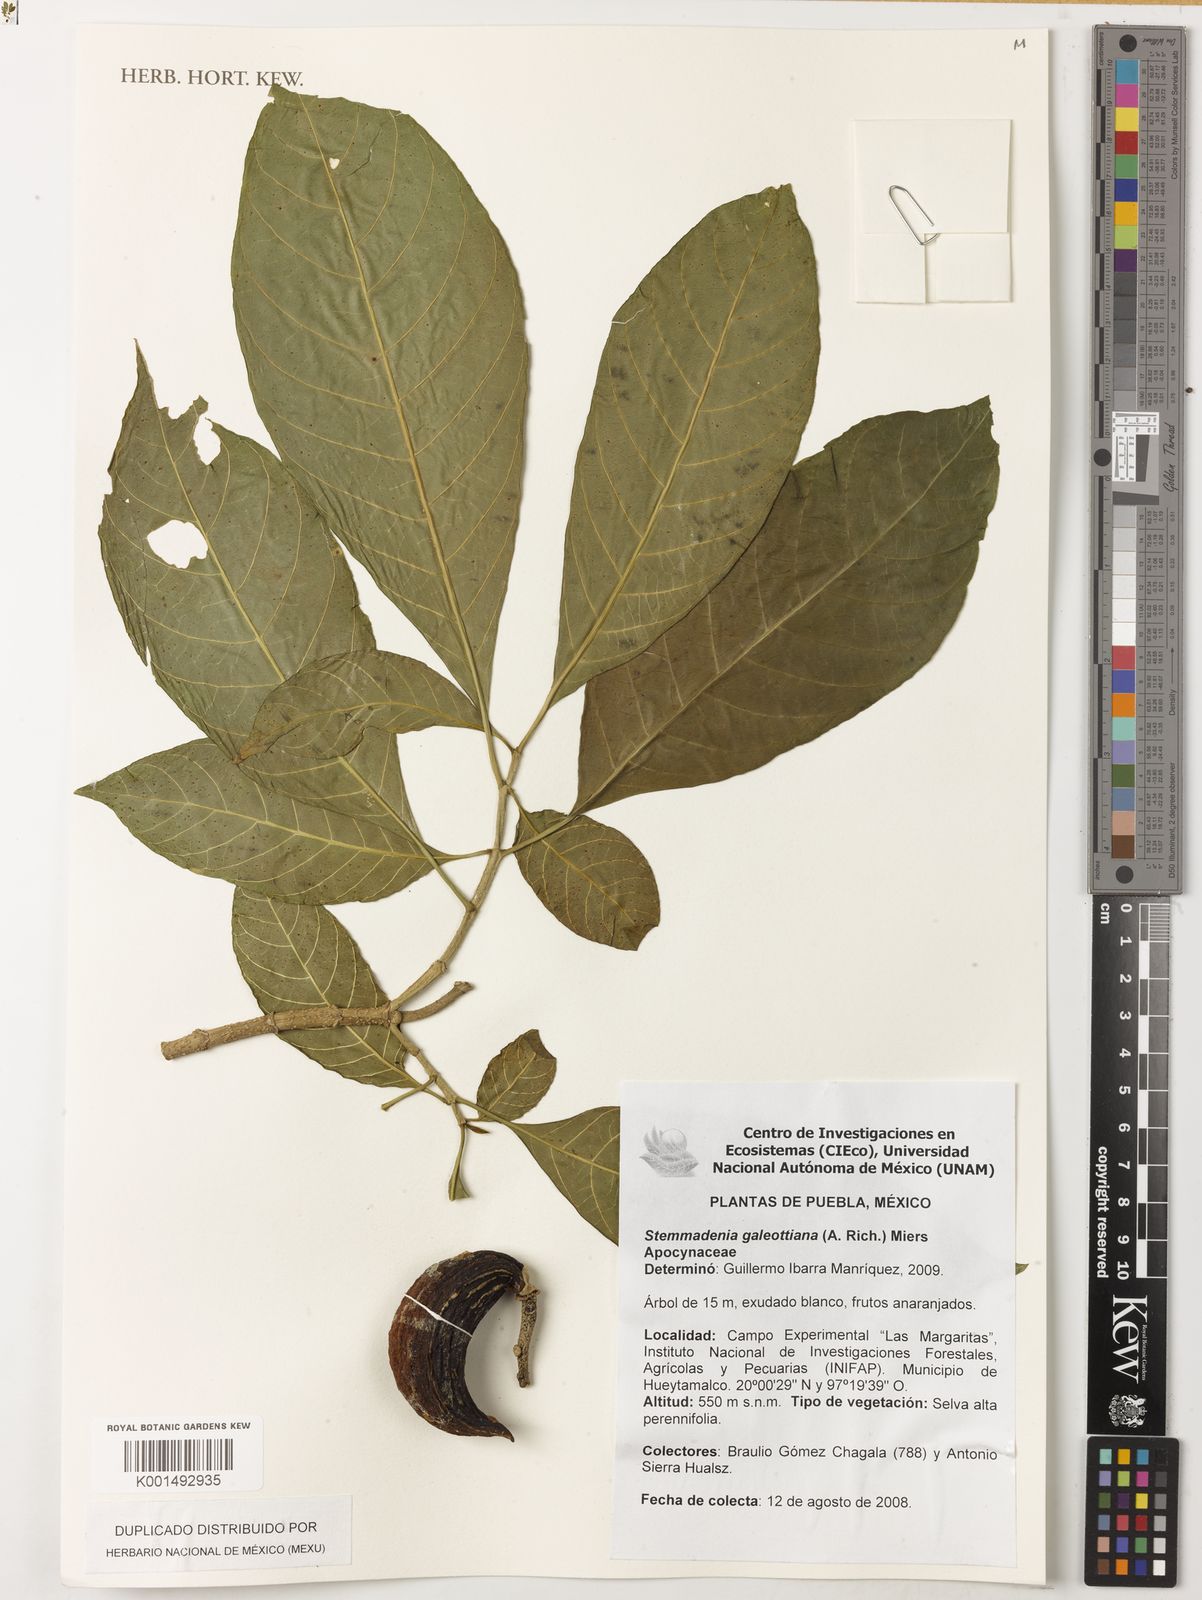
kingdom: Plantae
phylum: Tracheophyta
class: Magnoliopsida
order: Gentianales
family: Apocynaceae
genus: Tabernaemontana
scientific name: Tabernaemontana litoralis
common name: Milkwood
